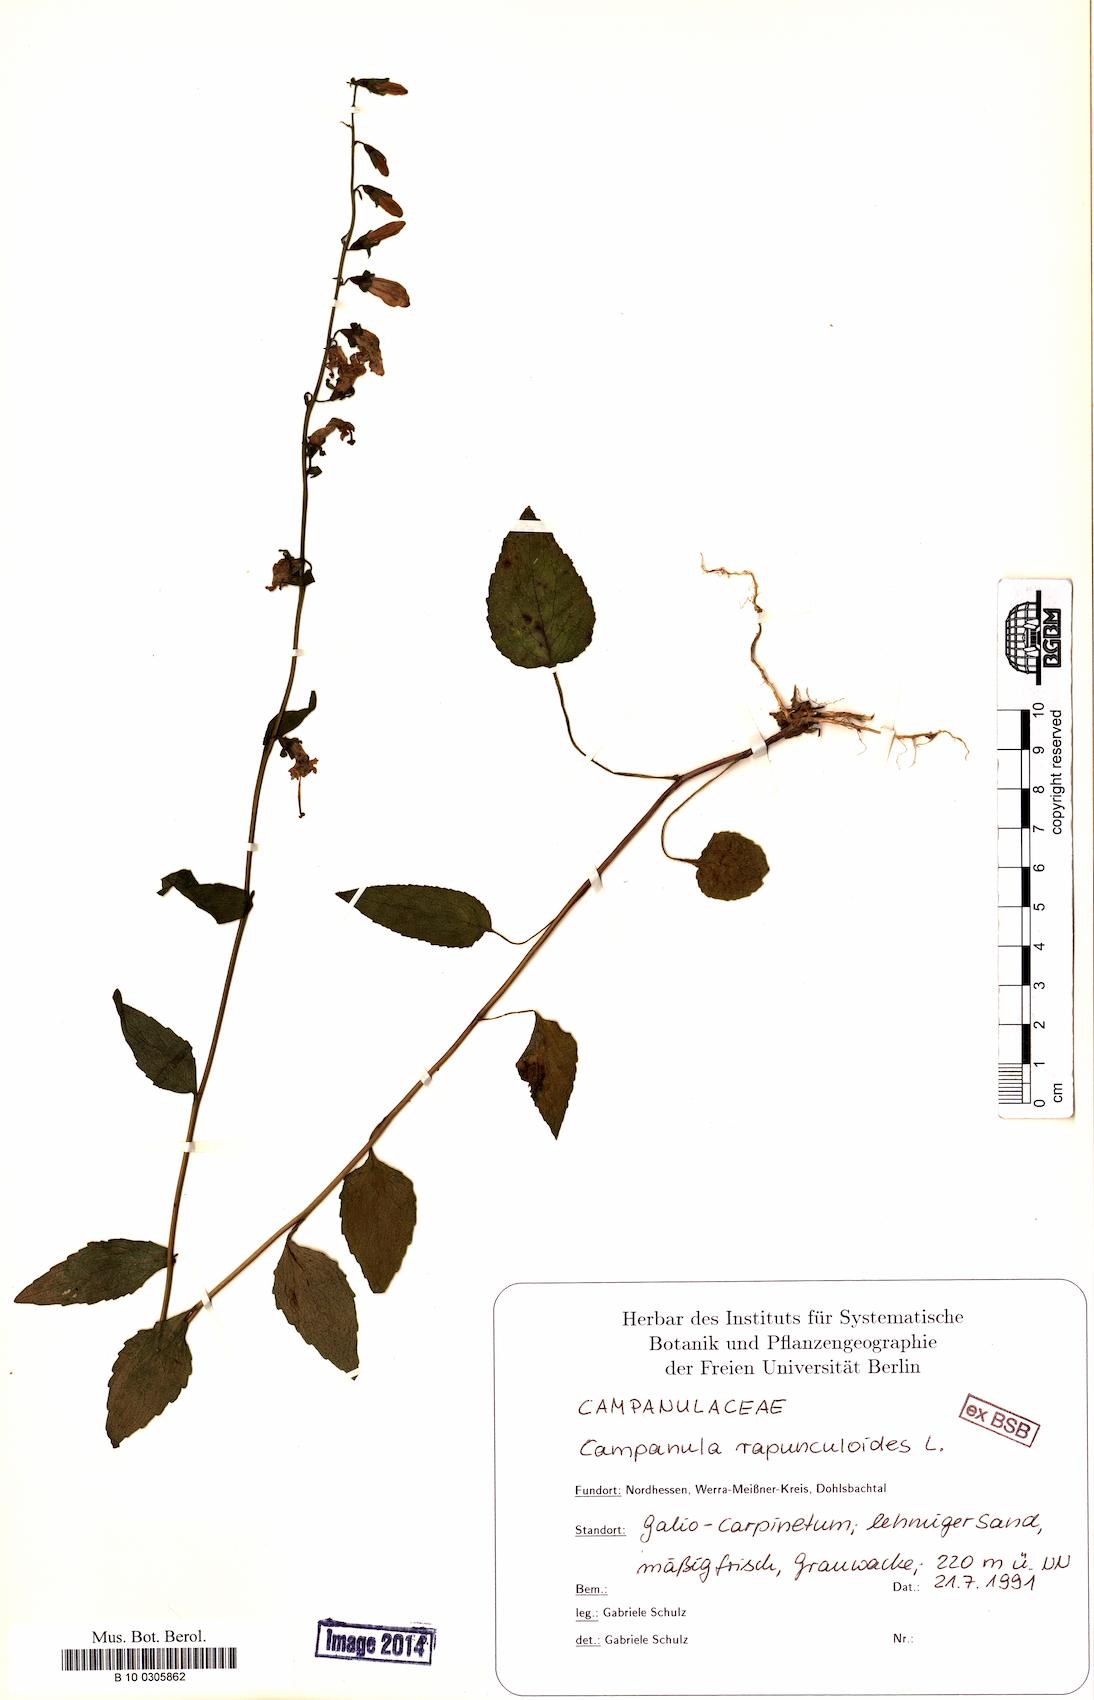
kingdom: Plantae
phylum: Tracheophyta
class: Magnoliopsida
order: Asterales
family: Campanulaceae
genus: Campanula
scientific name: Campanula rapunculoides
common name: Creeping bellflower
